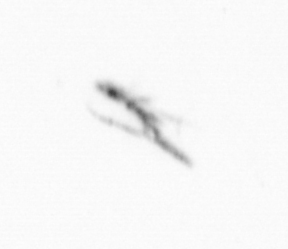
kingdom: Chromista
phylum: Ochrophyta
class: Bacillariophyceae
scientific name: Bacillariophyceae
